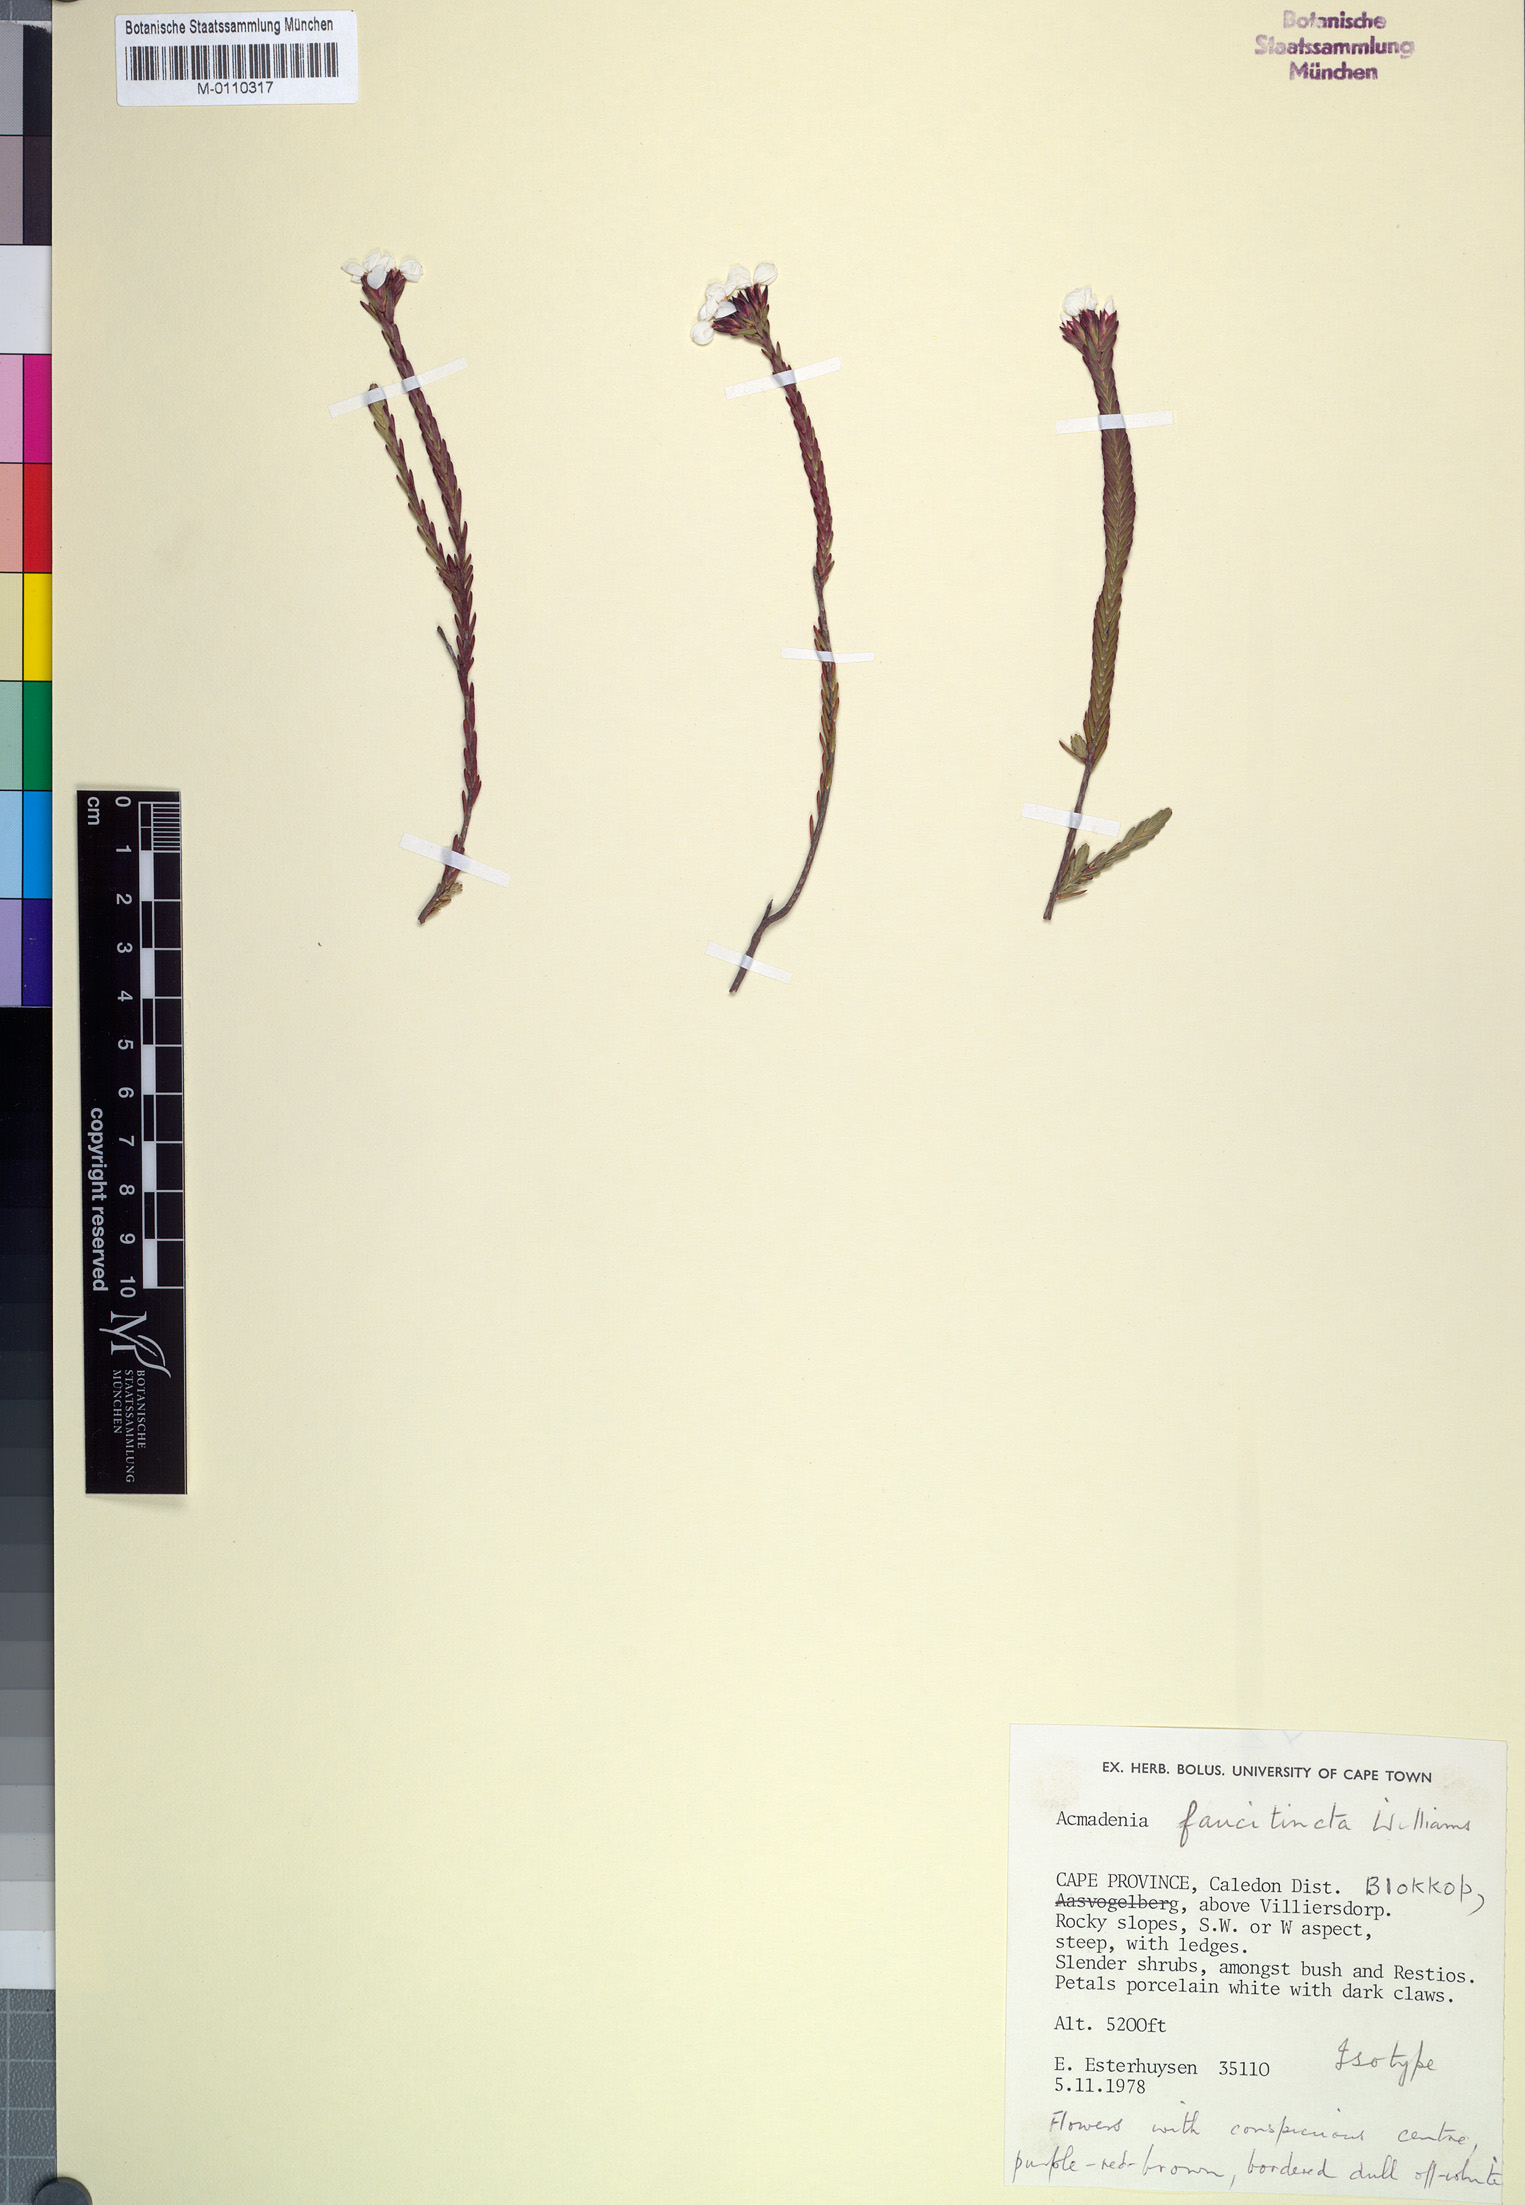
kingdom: Plantae
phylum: Tracheophyta
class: Magnoliopsida
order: Sapindales
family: Rutaceae
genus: Acmadenia
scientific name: Acmadenia faucitincta
